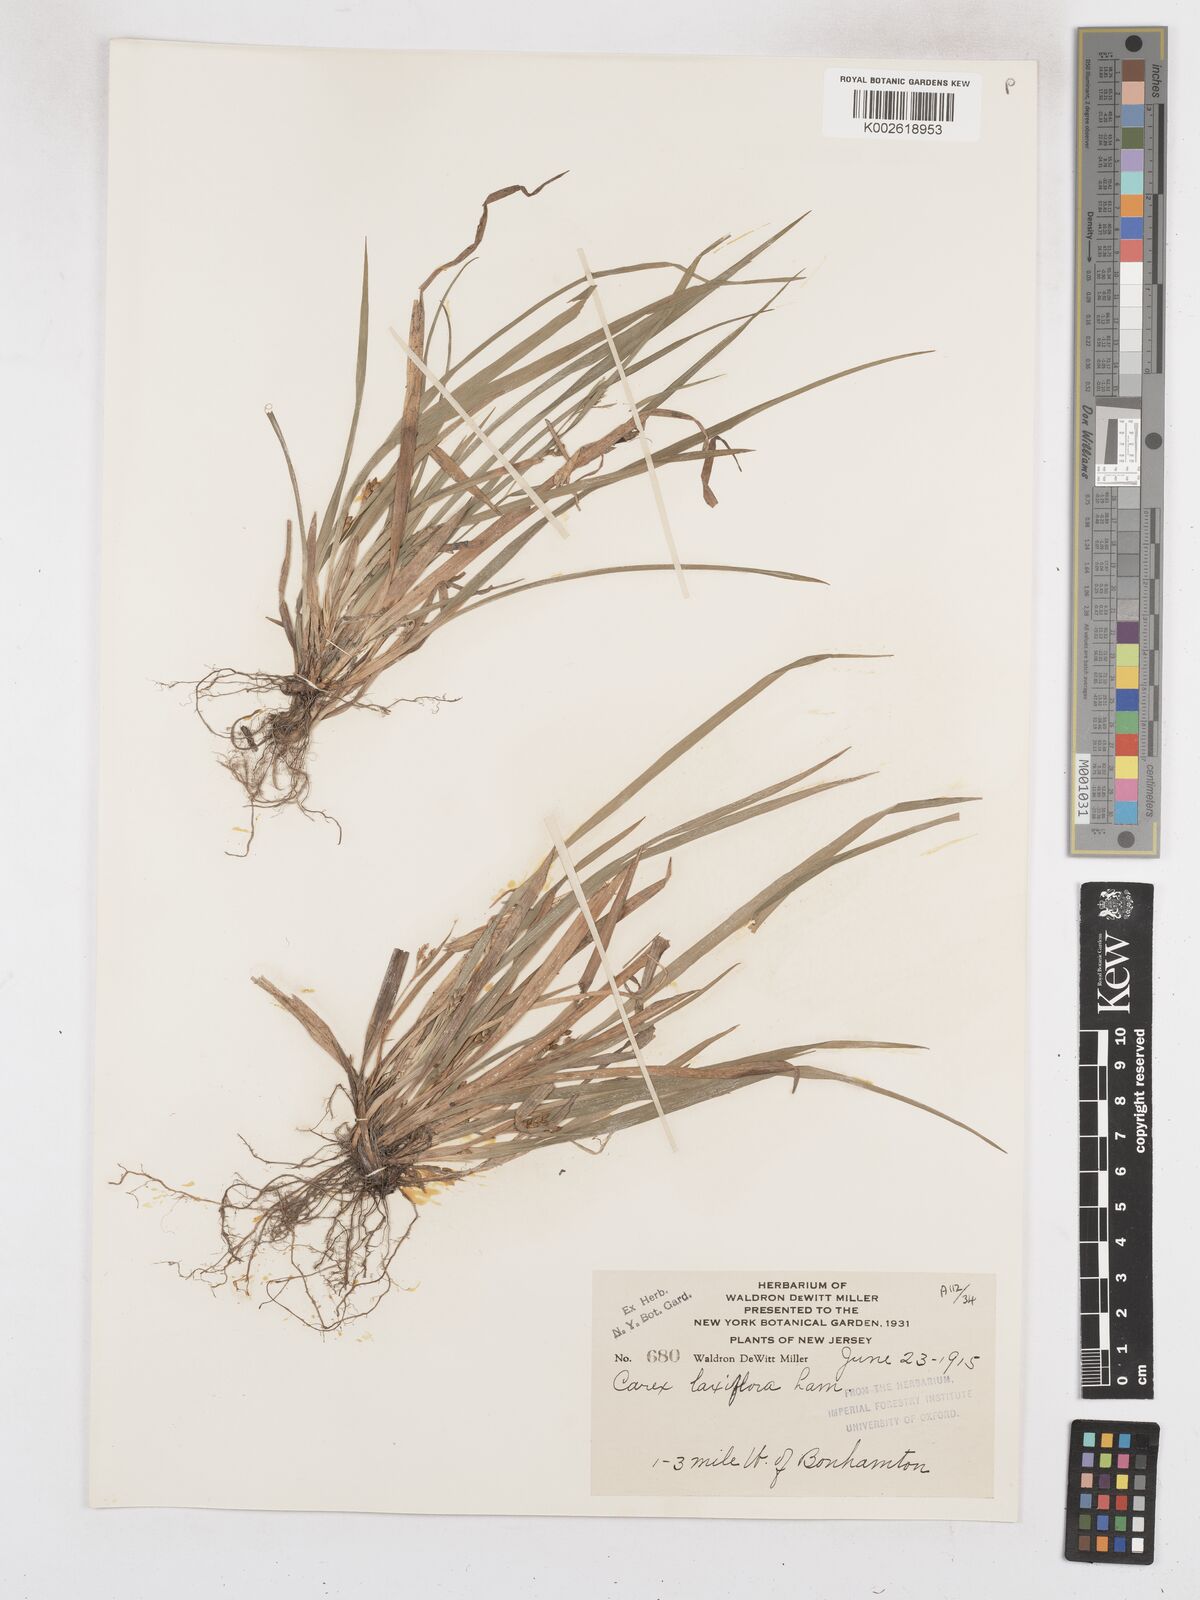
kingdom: Plantae
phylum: Tracheophyta
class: Liliopsida
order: Poales
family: Cyperaceae
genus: Carex
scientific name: Carex laxiflora
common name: Beech wood sedge
